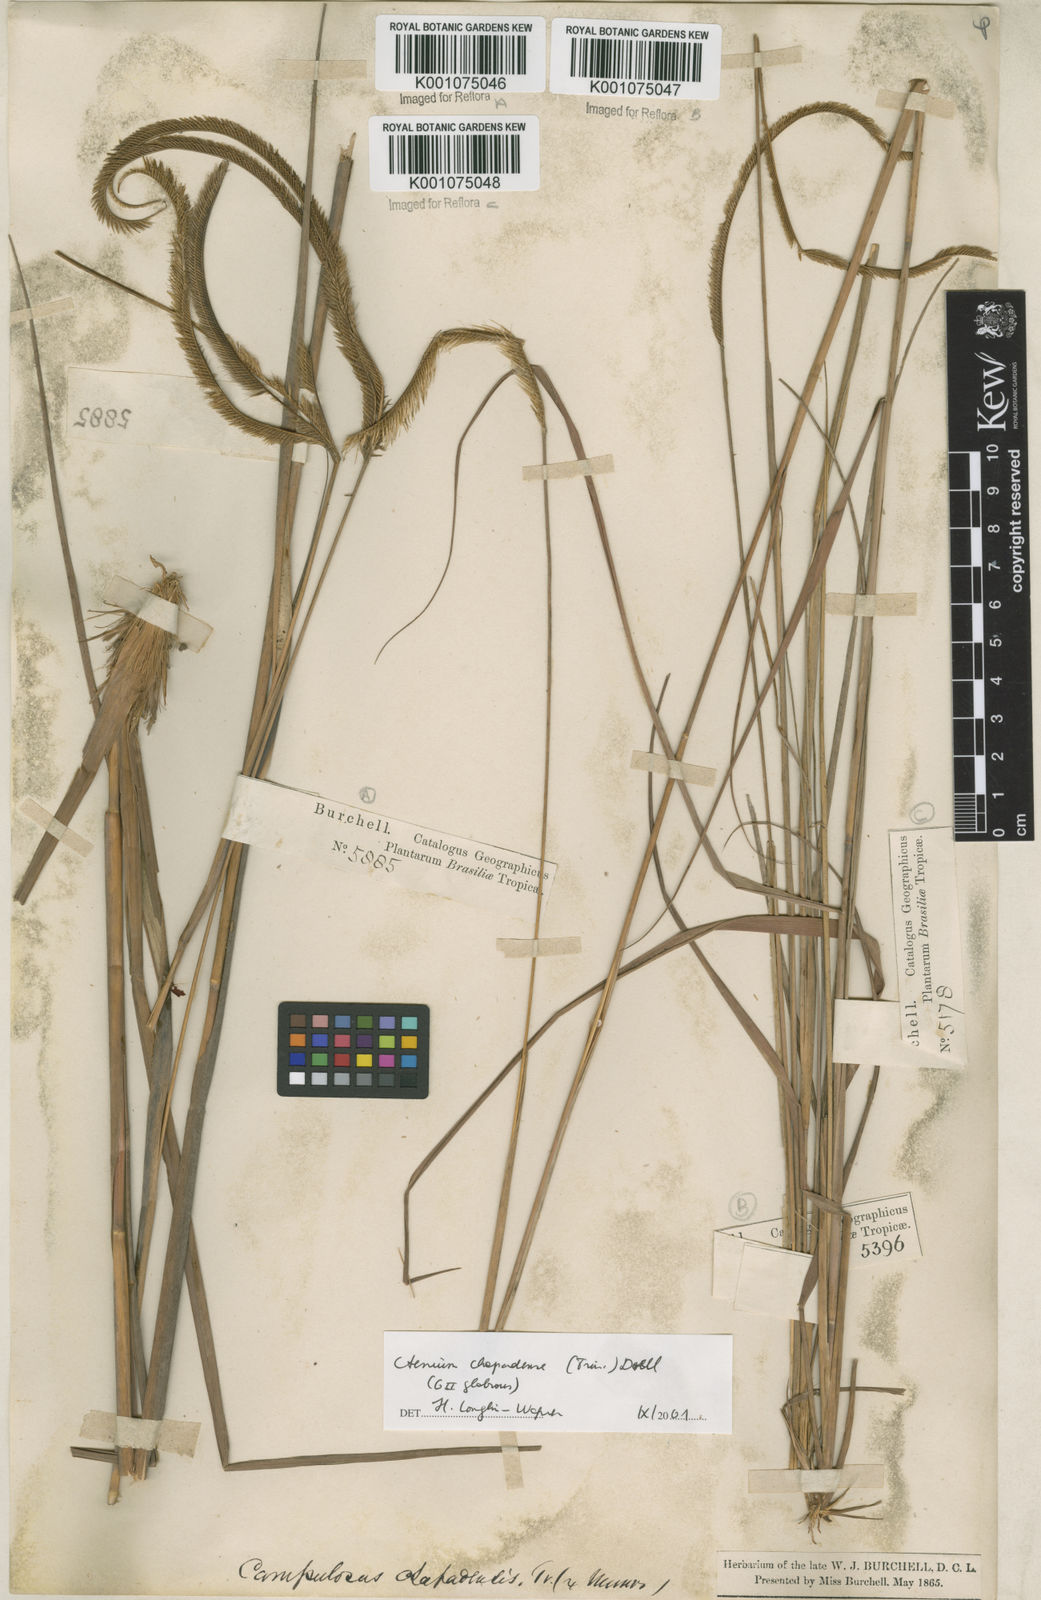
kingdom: Plantae
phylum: Tracheophyta
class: Liliopsida
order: Poales
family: Poaceae
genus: Ctenium
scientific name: Ctenium
